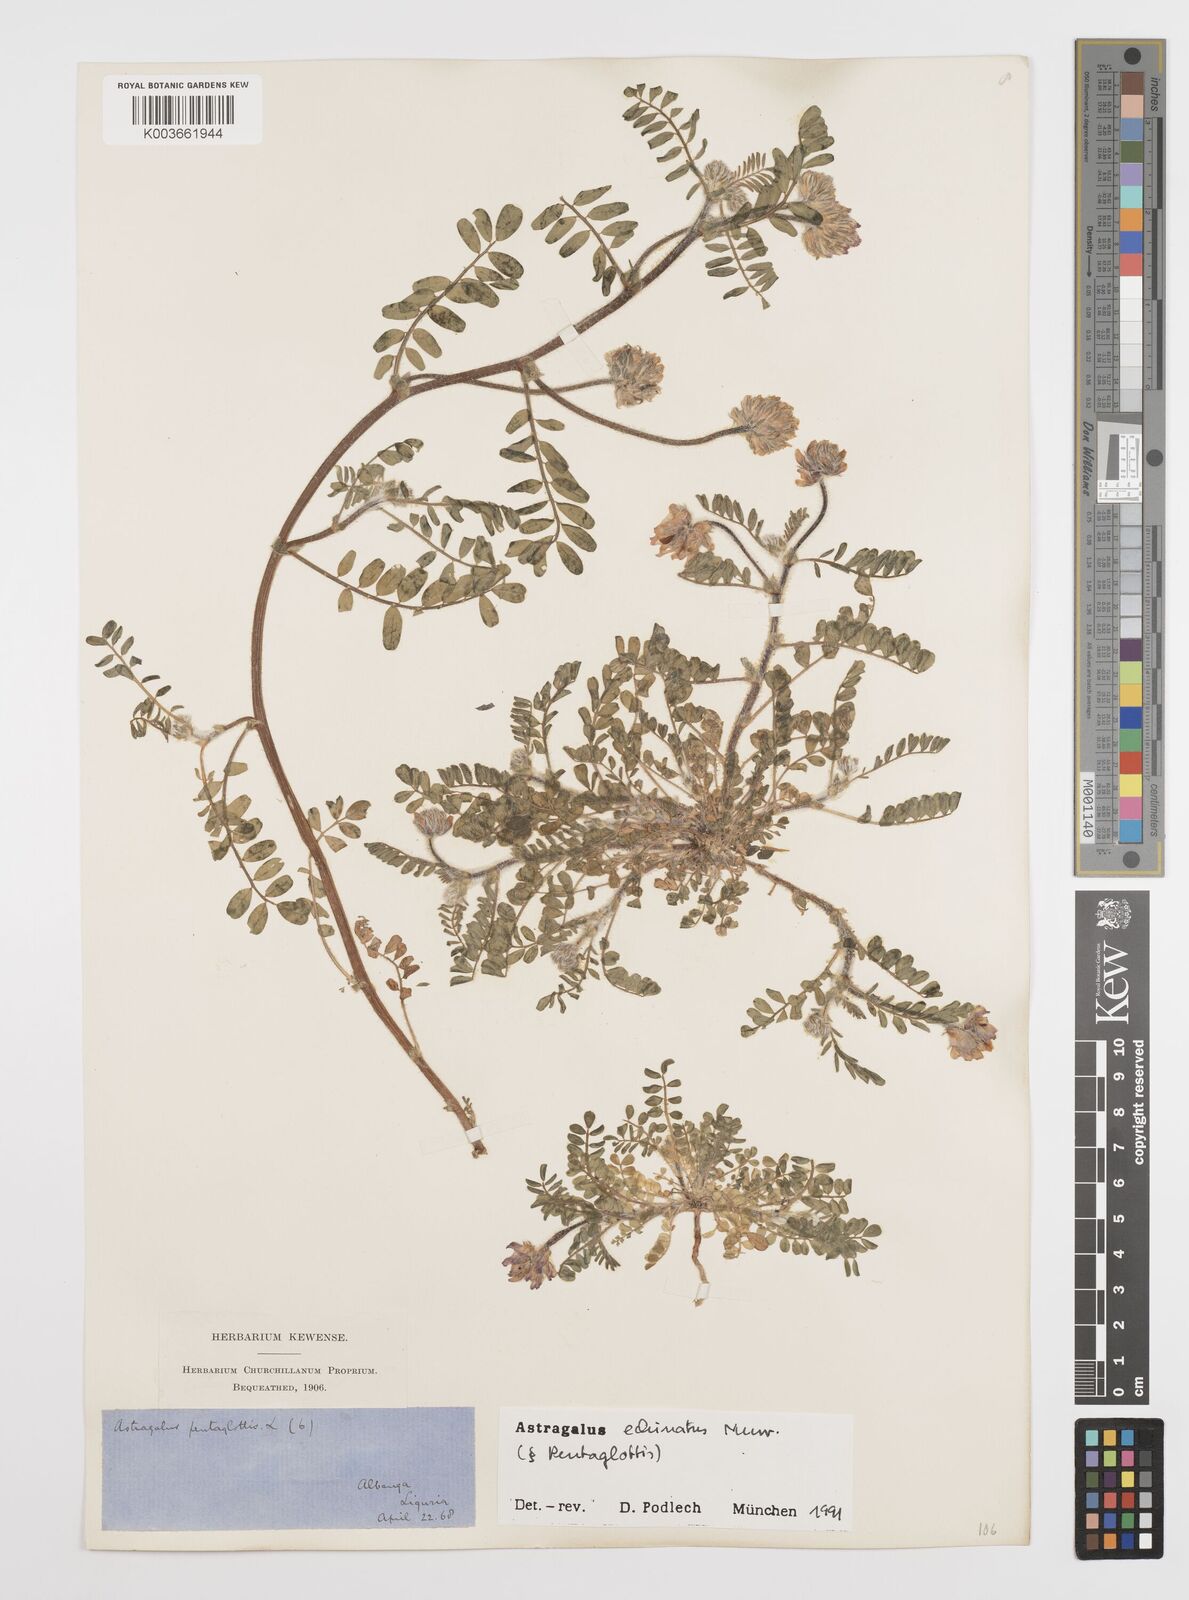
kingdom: Plantae
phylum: Tracheophyta
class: Magnoliopsida
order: Fabales
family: Fabaceae
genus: Astragalus
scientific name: Astragalus echinatus
